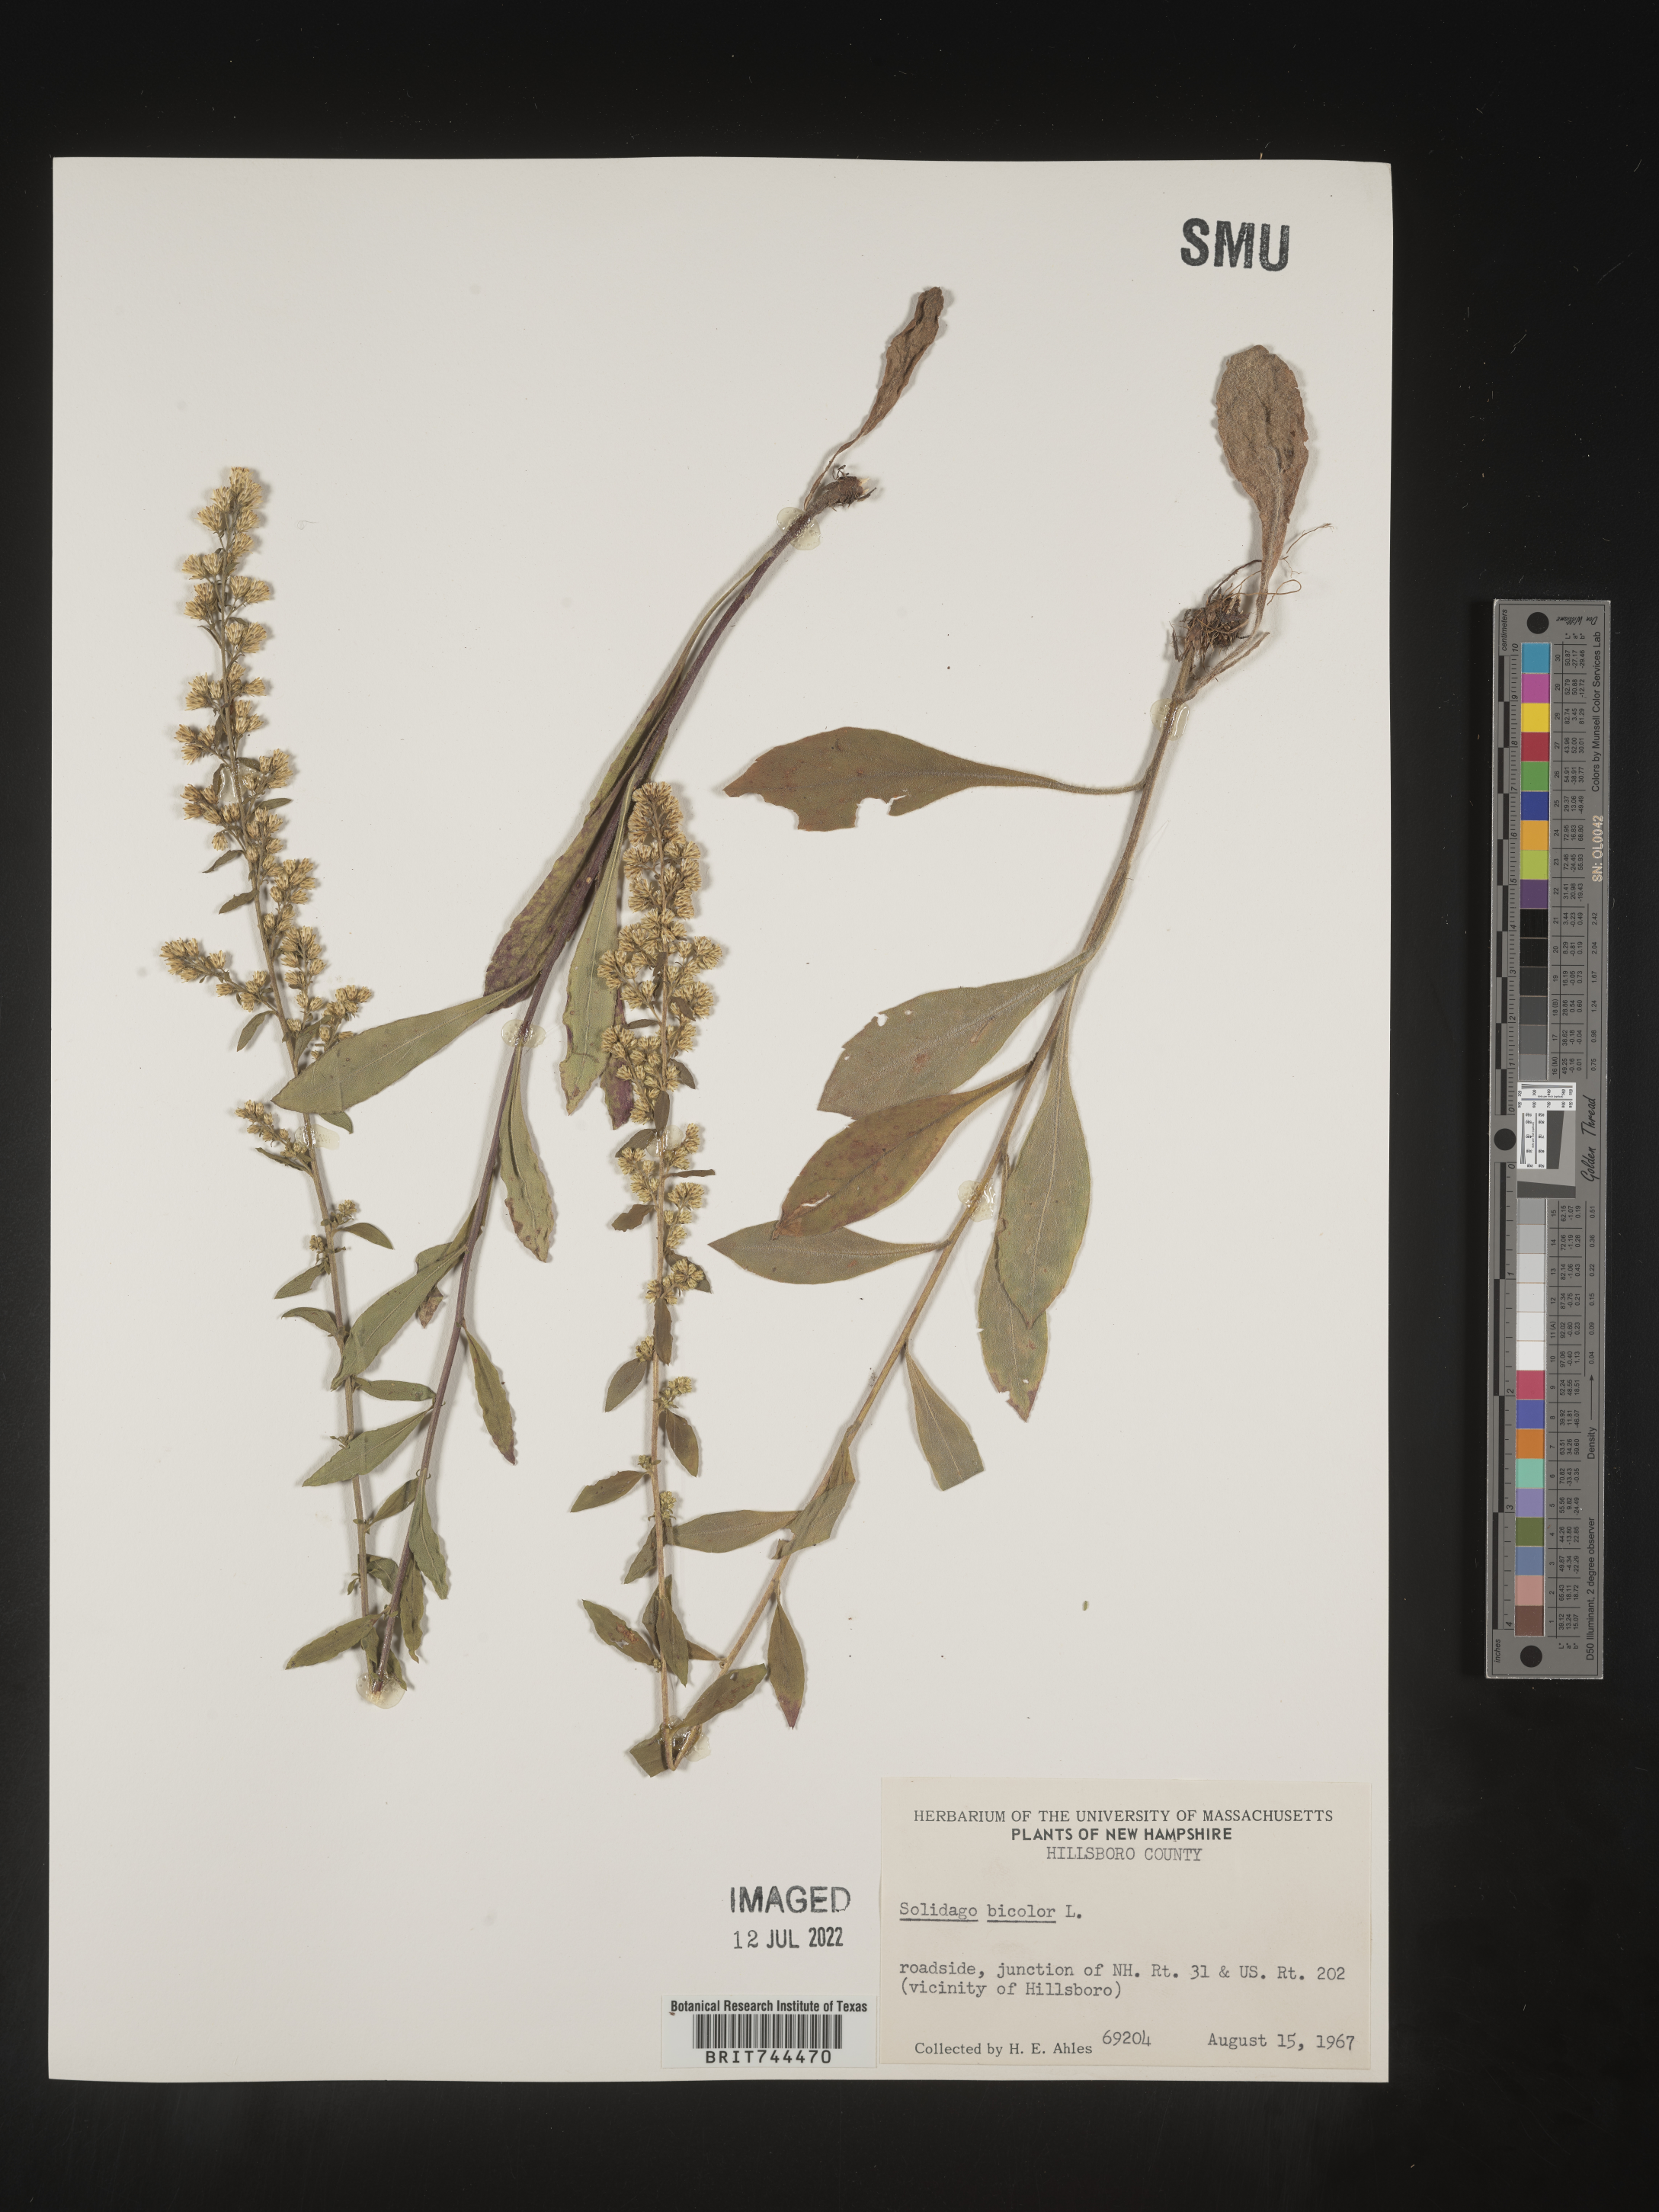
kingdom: Plantae
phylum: Tracheophyta
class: Magnoliopsida
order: Asterales
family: Asteraceae
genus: Solidago
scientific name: Solidago bicolor
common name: Silverrod
